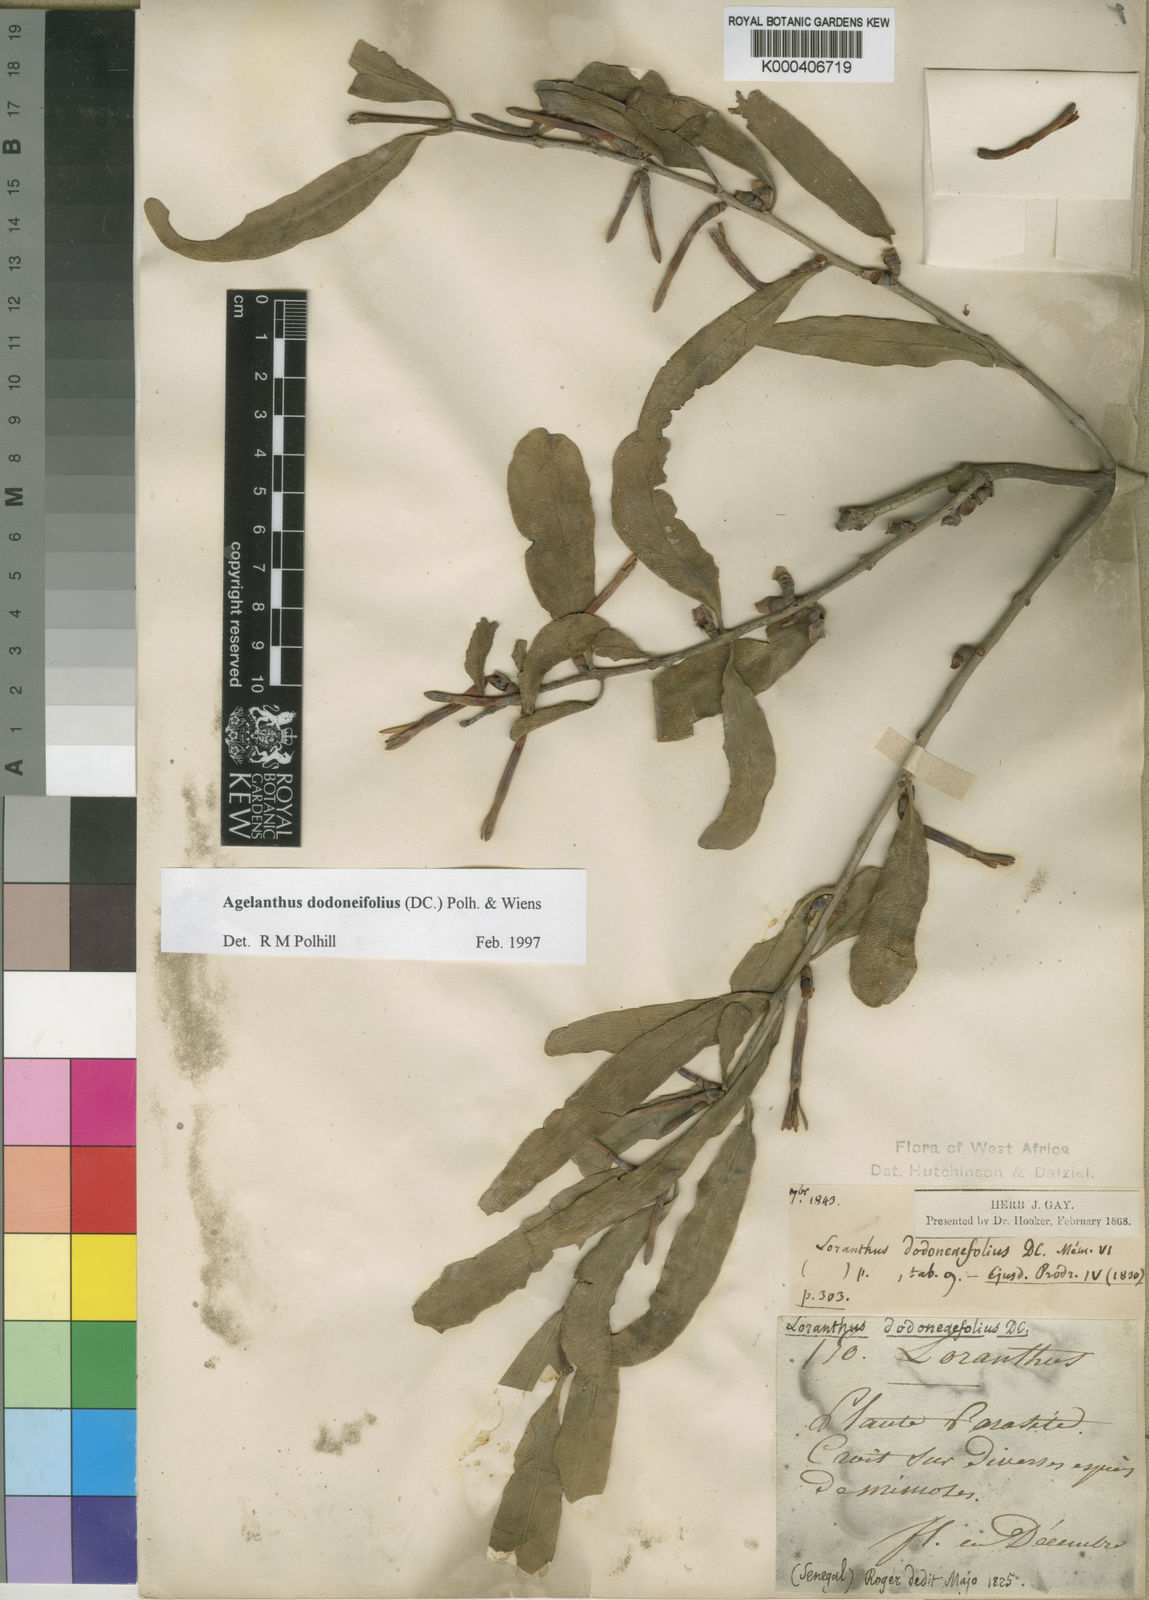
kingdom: Plantae
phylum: Tracheophyta
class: Magnoliopsida
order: Santalales
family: Loranthaceae
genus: Agelanthus
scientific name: Agelanthus dodoneifolius
